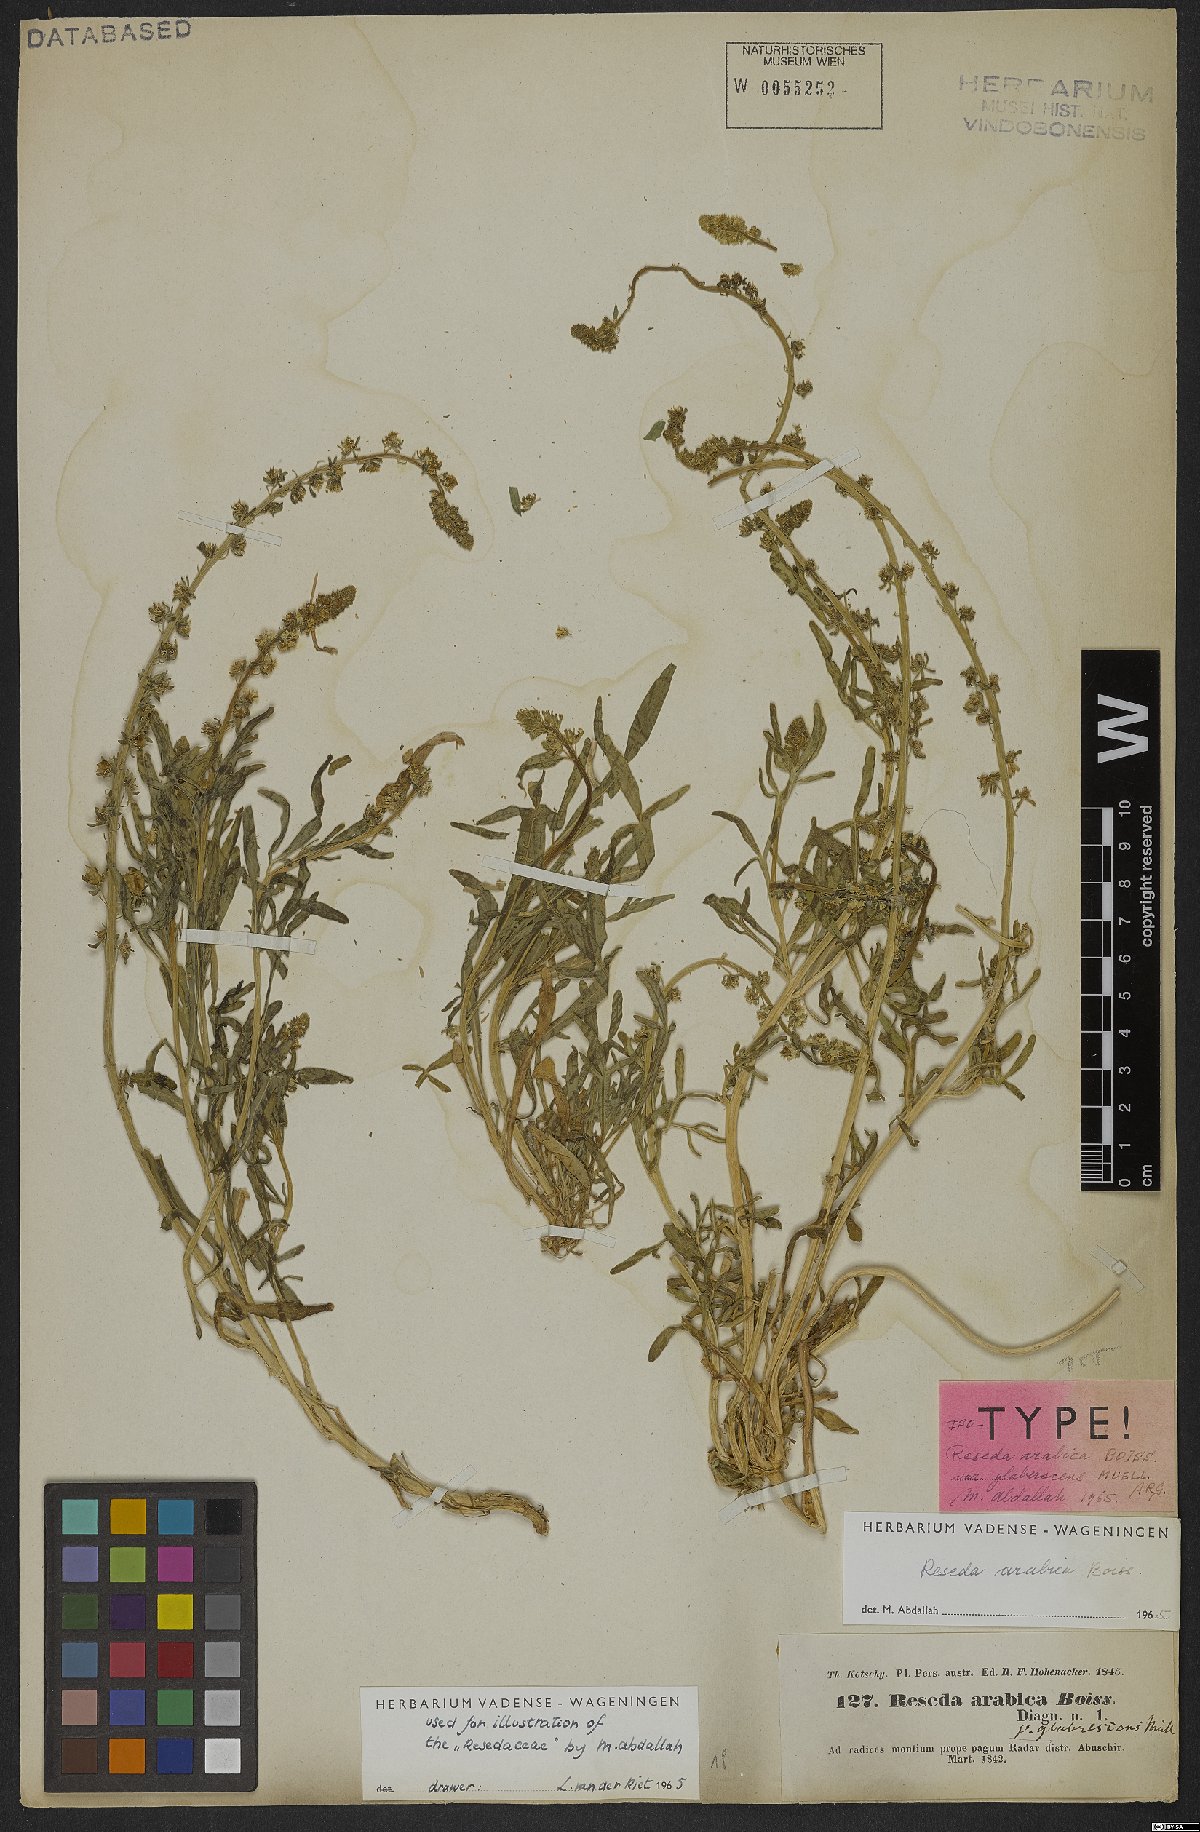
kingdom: Plantae
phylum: Tracheophyta
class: Magnoliopsida
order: Brassicales
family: Resedaceae
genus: Reseda
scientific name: Reseda arabica
